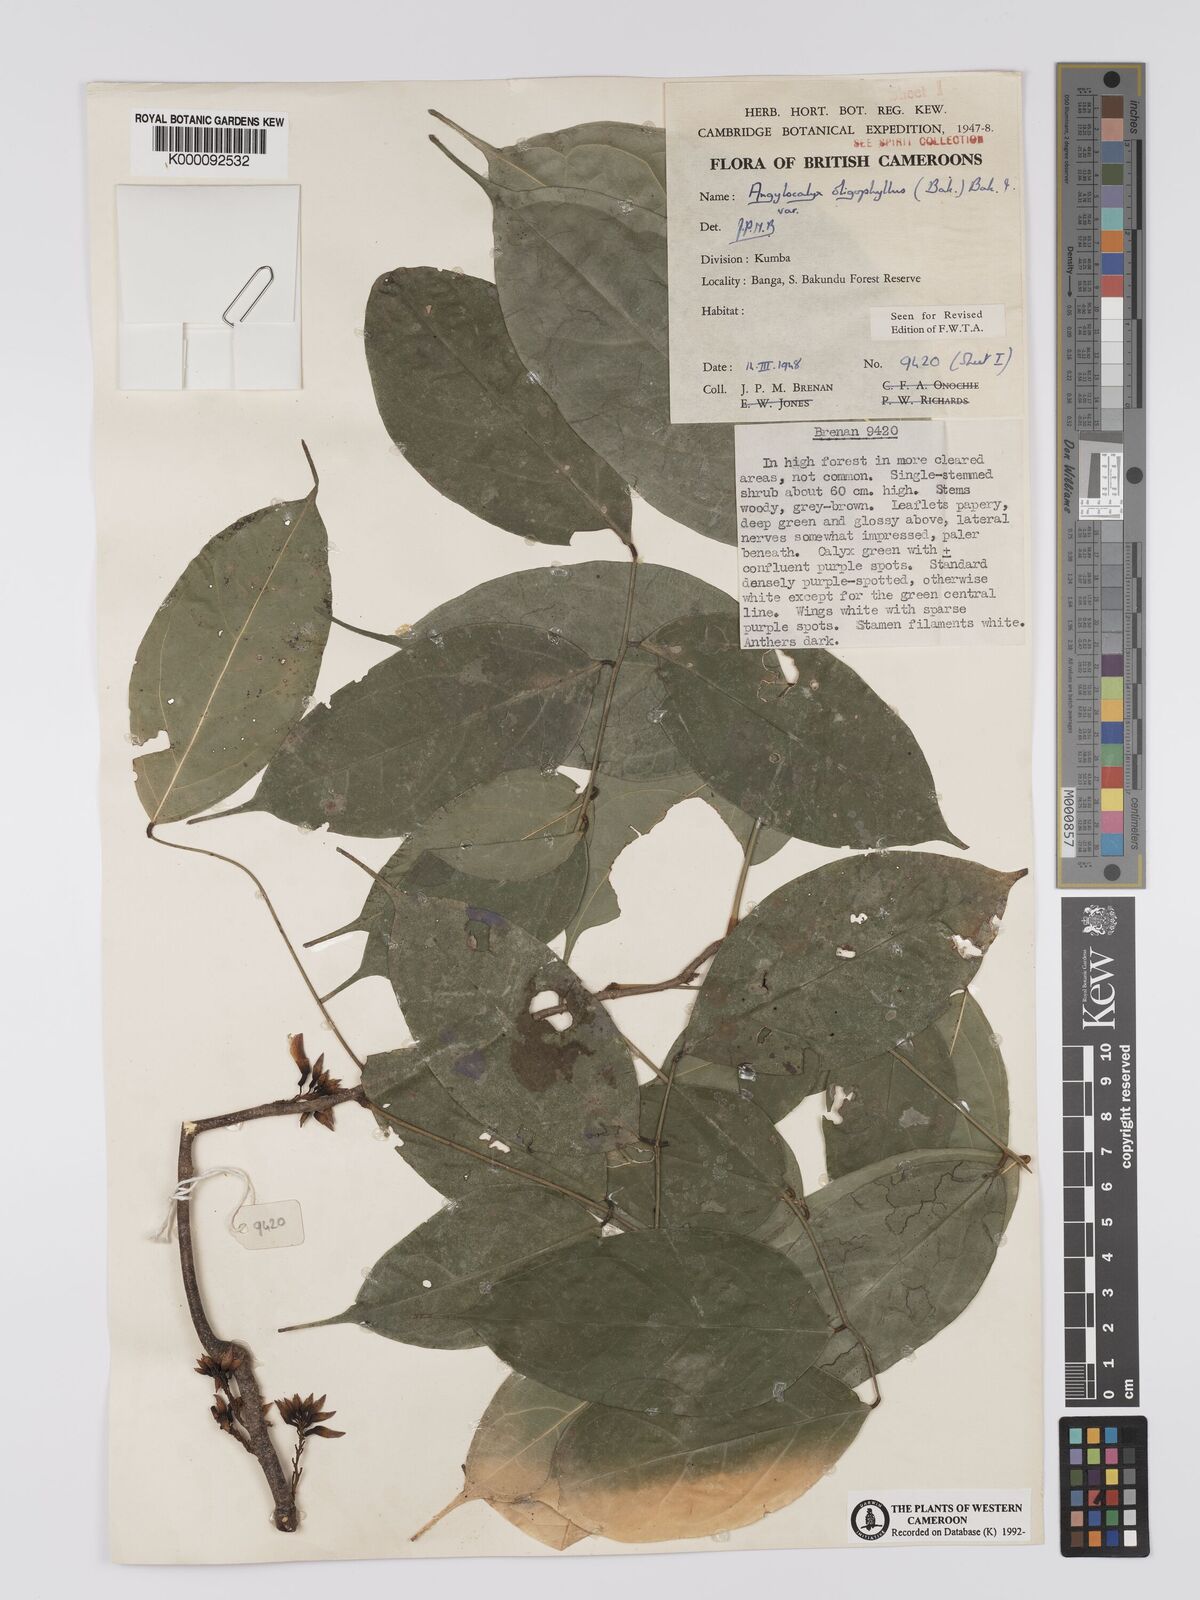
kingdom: Plantae
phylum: Tracheophyta
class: Magnoliopsida
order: Fabales
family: Fabaceae
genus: Angylocalyx
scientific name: Angylocalyx oligophyllus
